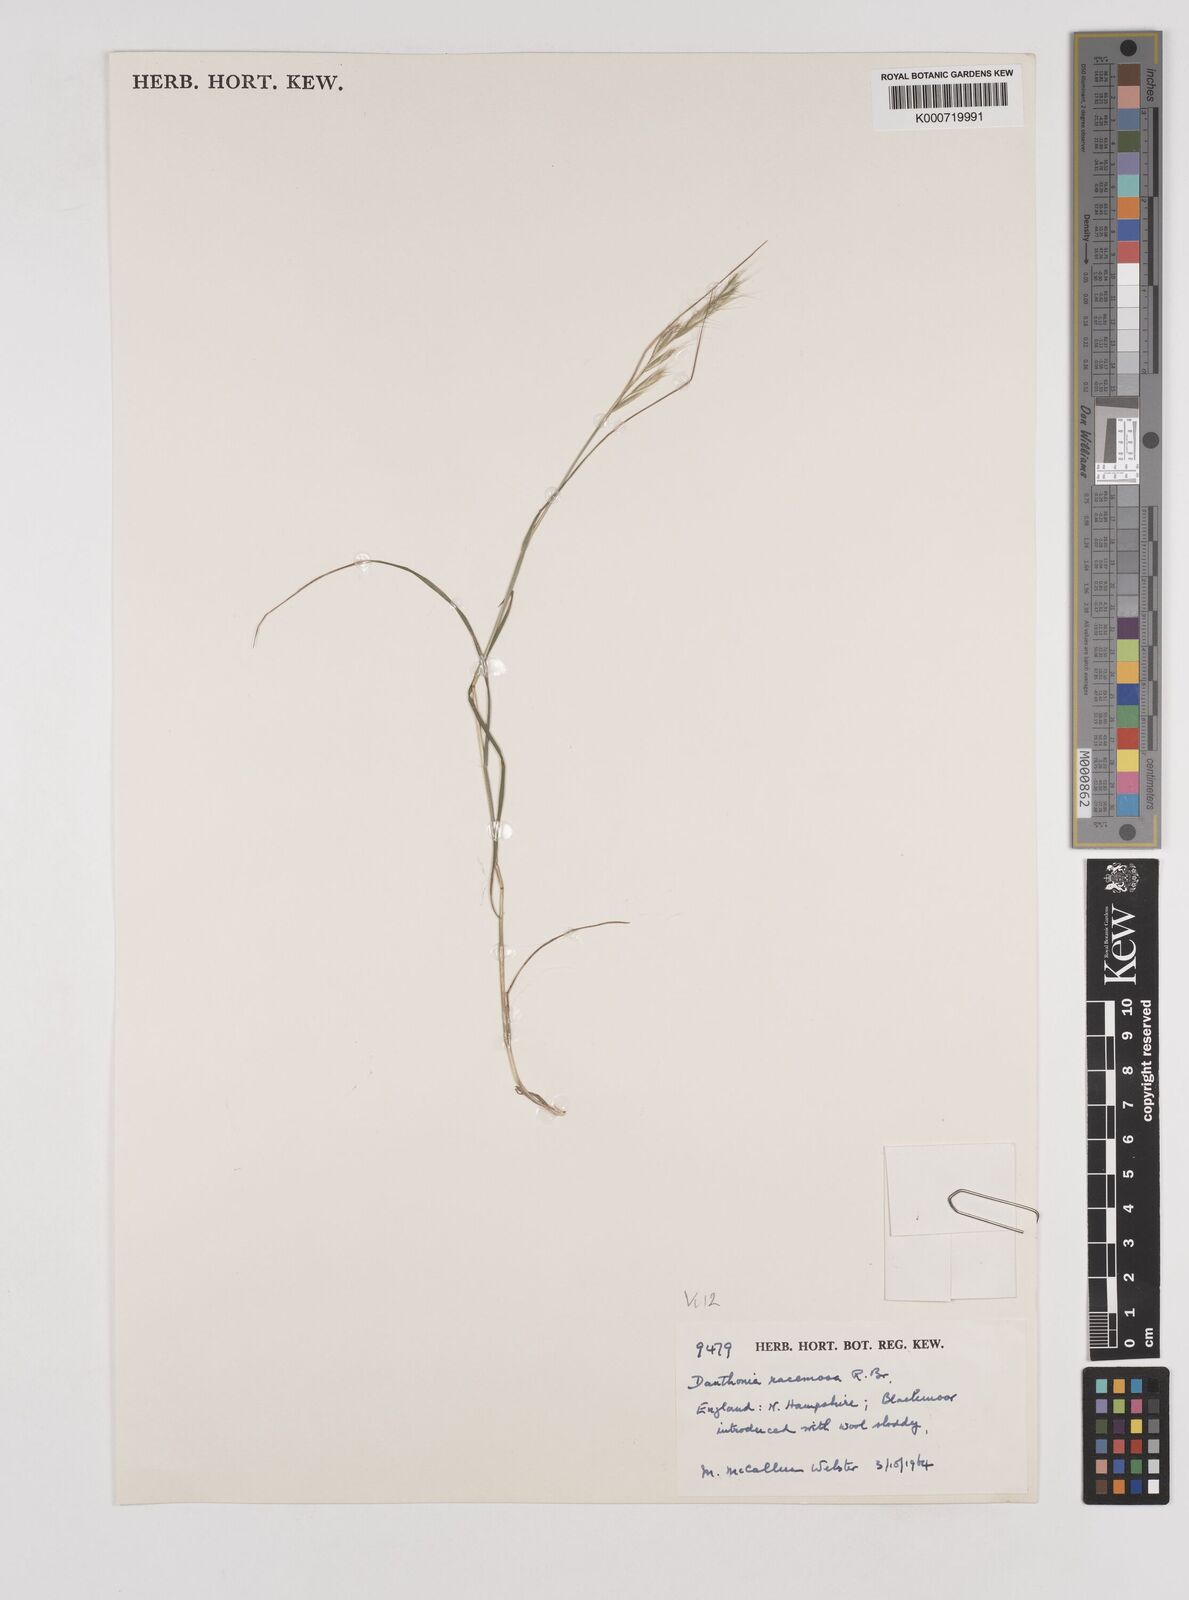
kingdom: Plantae
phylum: Tracheophyta
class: Liliopsida
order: Poales
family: Poaceae
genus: Rytidosperma
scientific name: Rytidosperma racemosum
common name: Wallaby-grass
